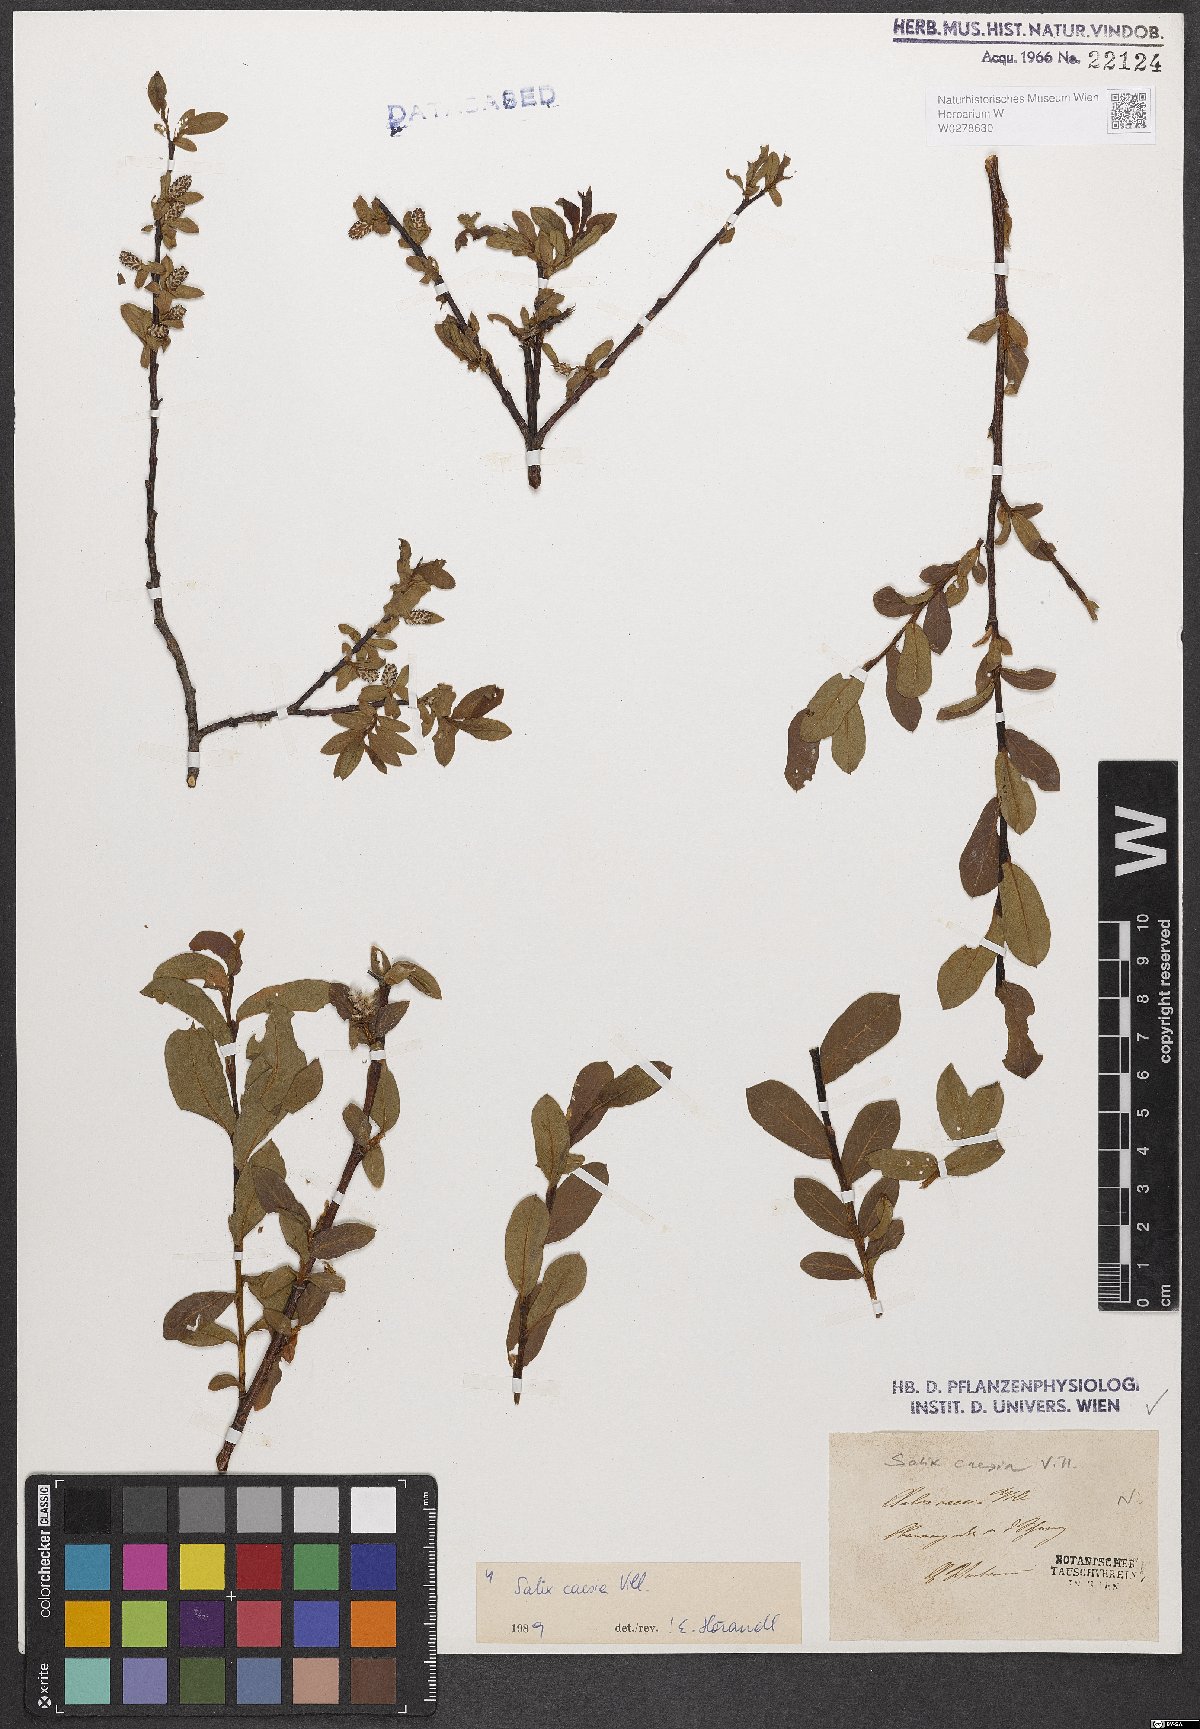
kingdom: Plantae
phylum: Tracheophyta
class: Magnoliopsida
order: Malpighiales
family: Salicaceae
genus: Salix
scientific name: Salix caesia
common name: Blue willow
